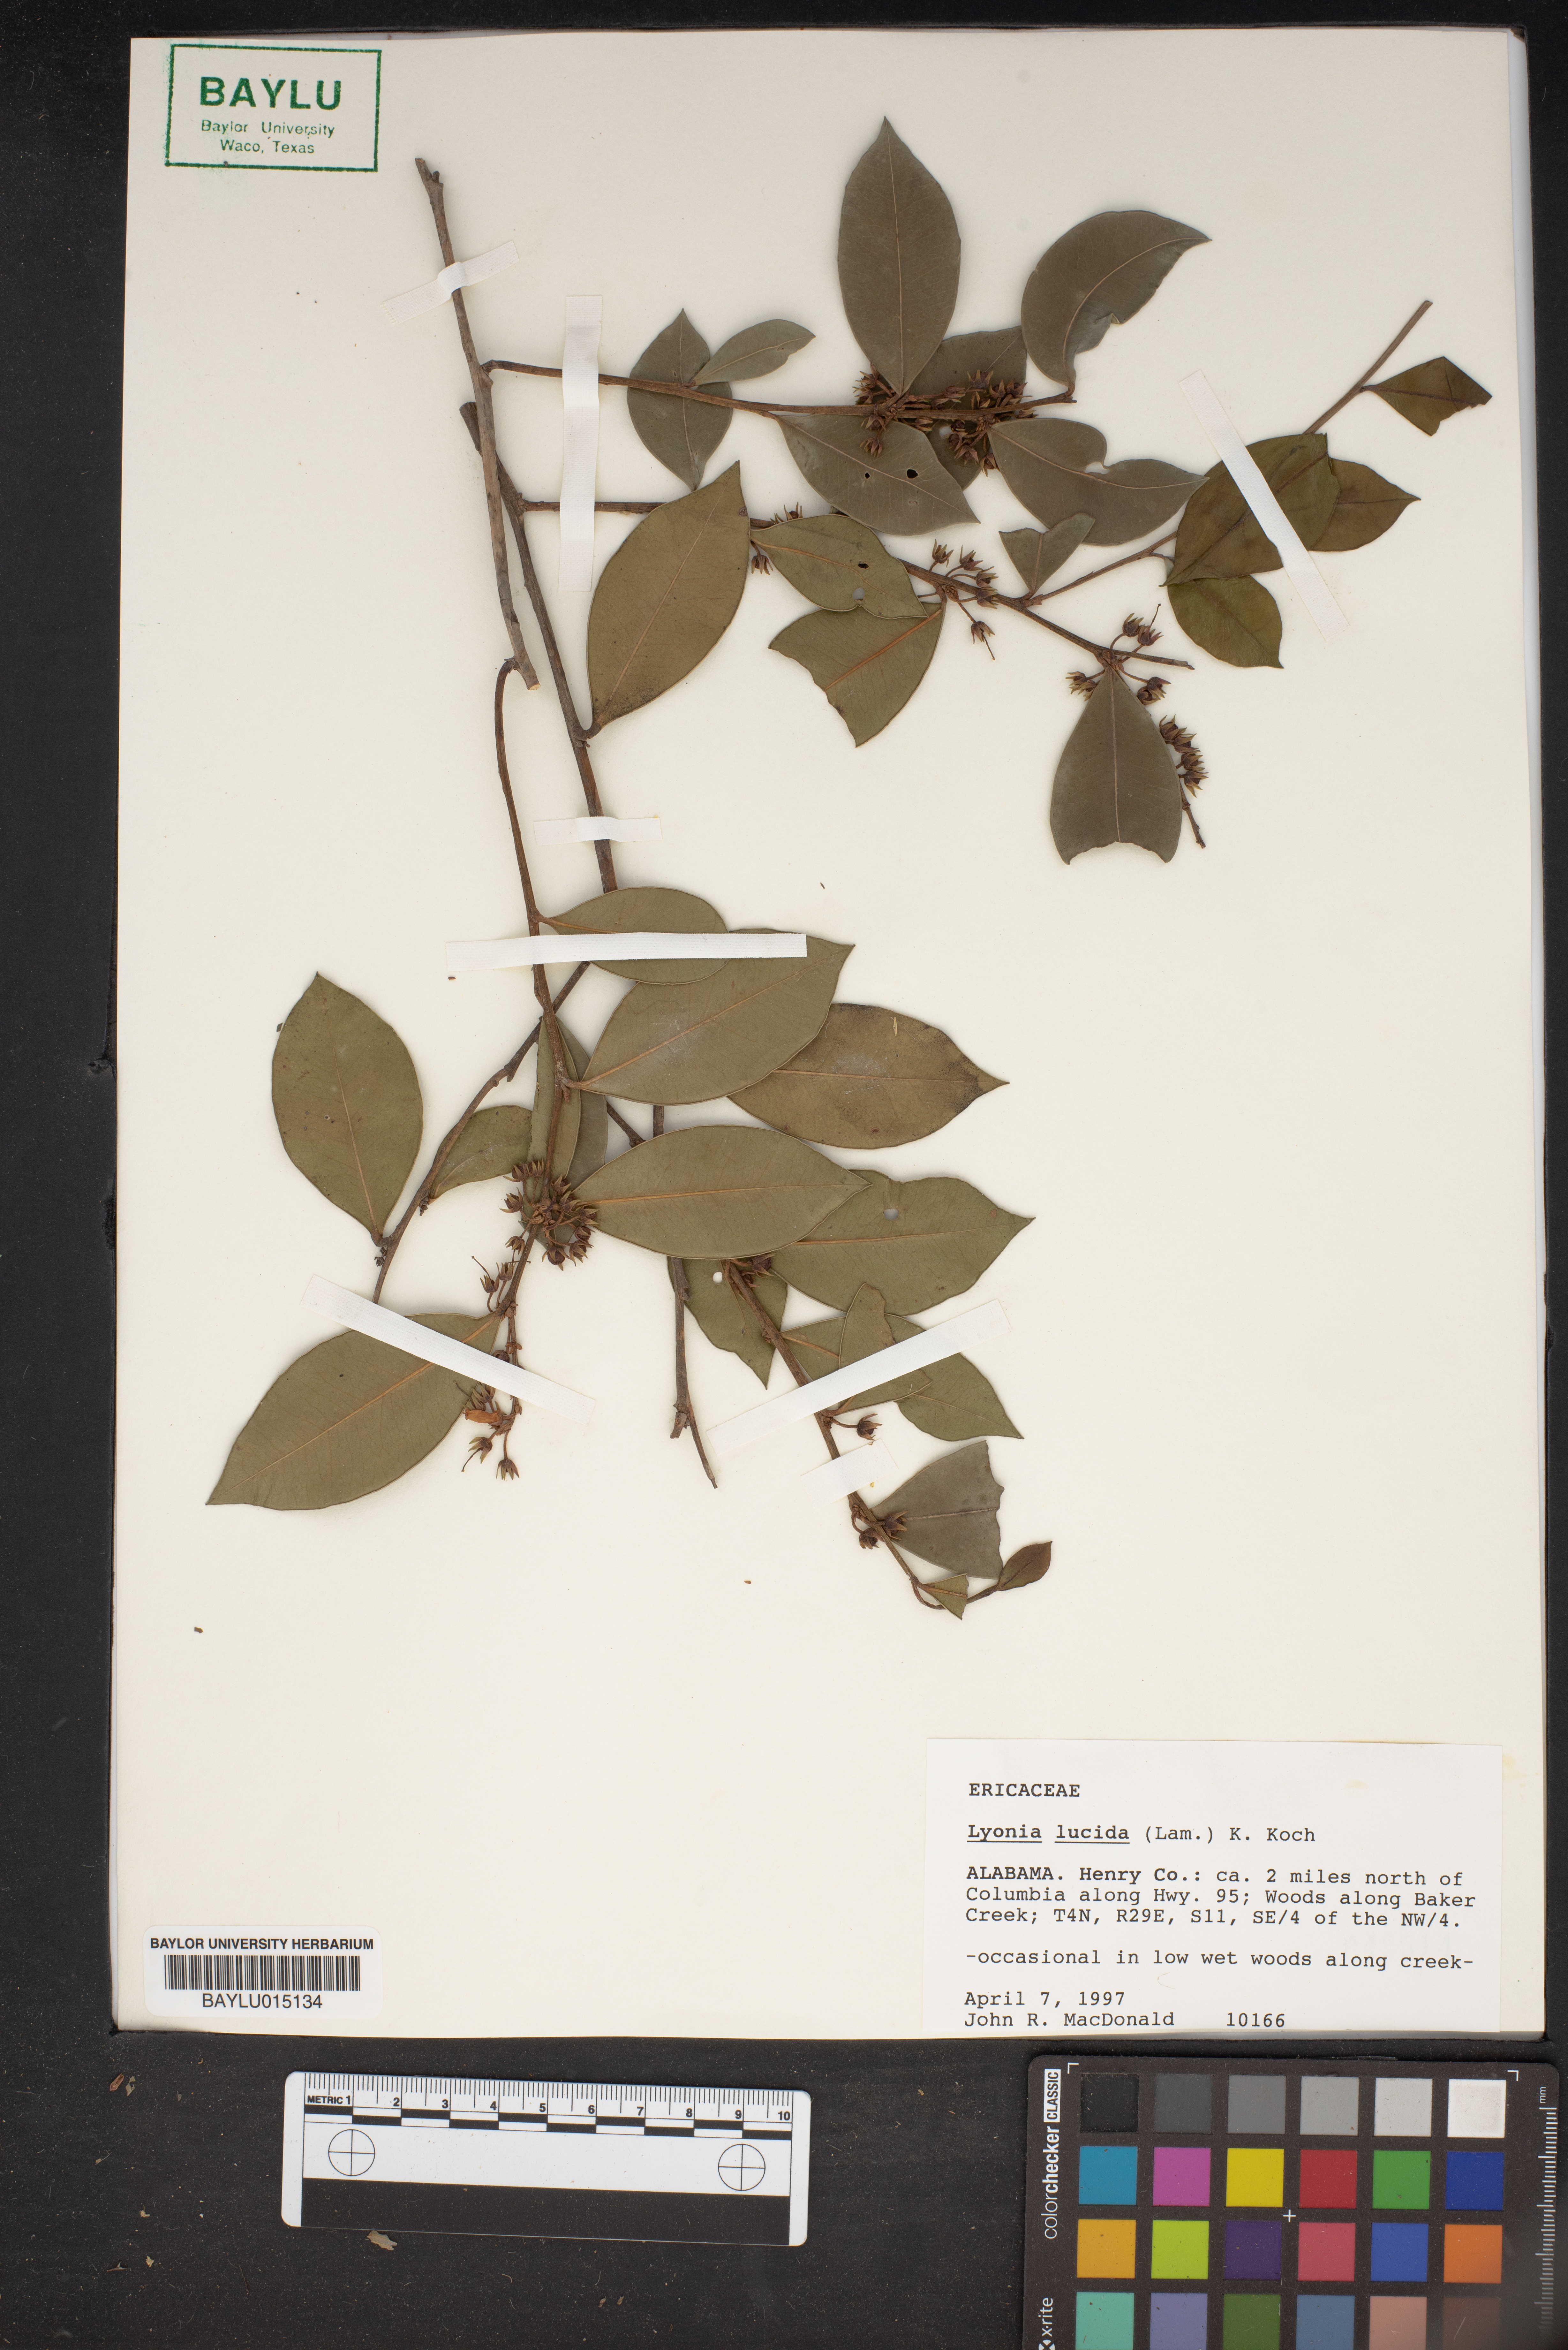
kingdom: Plantae
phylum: Tracheophyta
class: Magnoliopsida
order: Ericales
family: Ericaceae
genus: Lyonia
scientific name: Lyonia lucida
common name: Fetterbush
